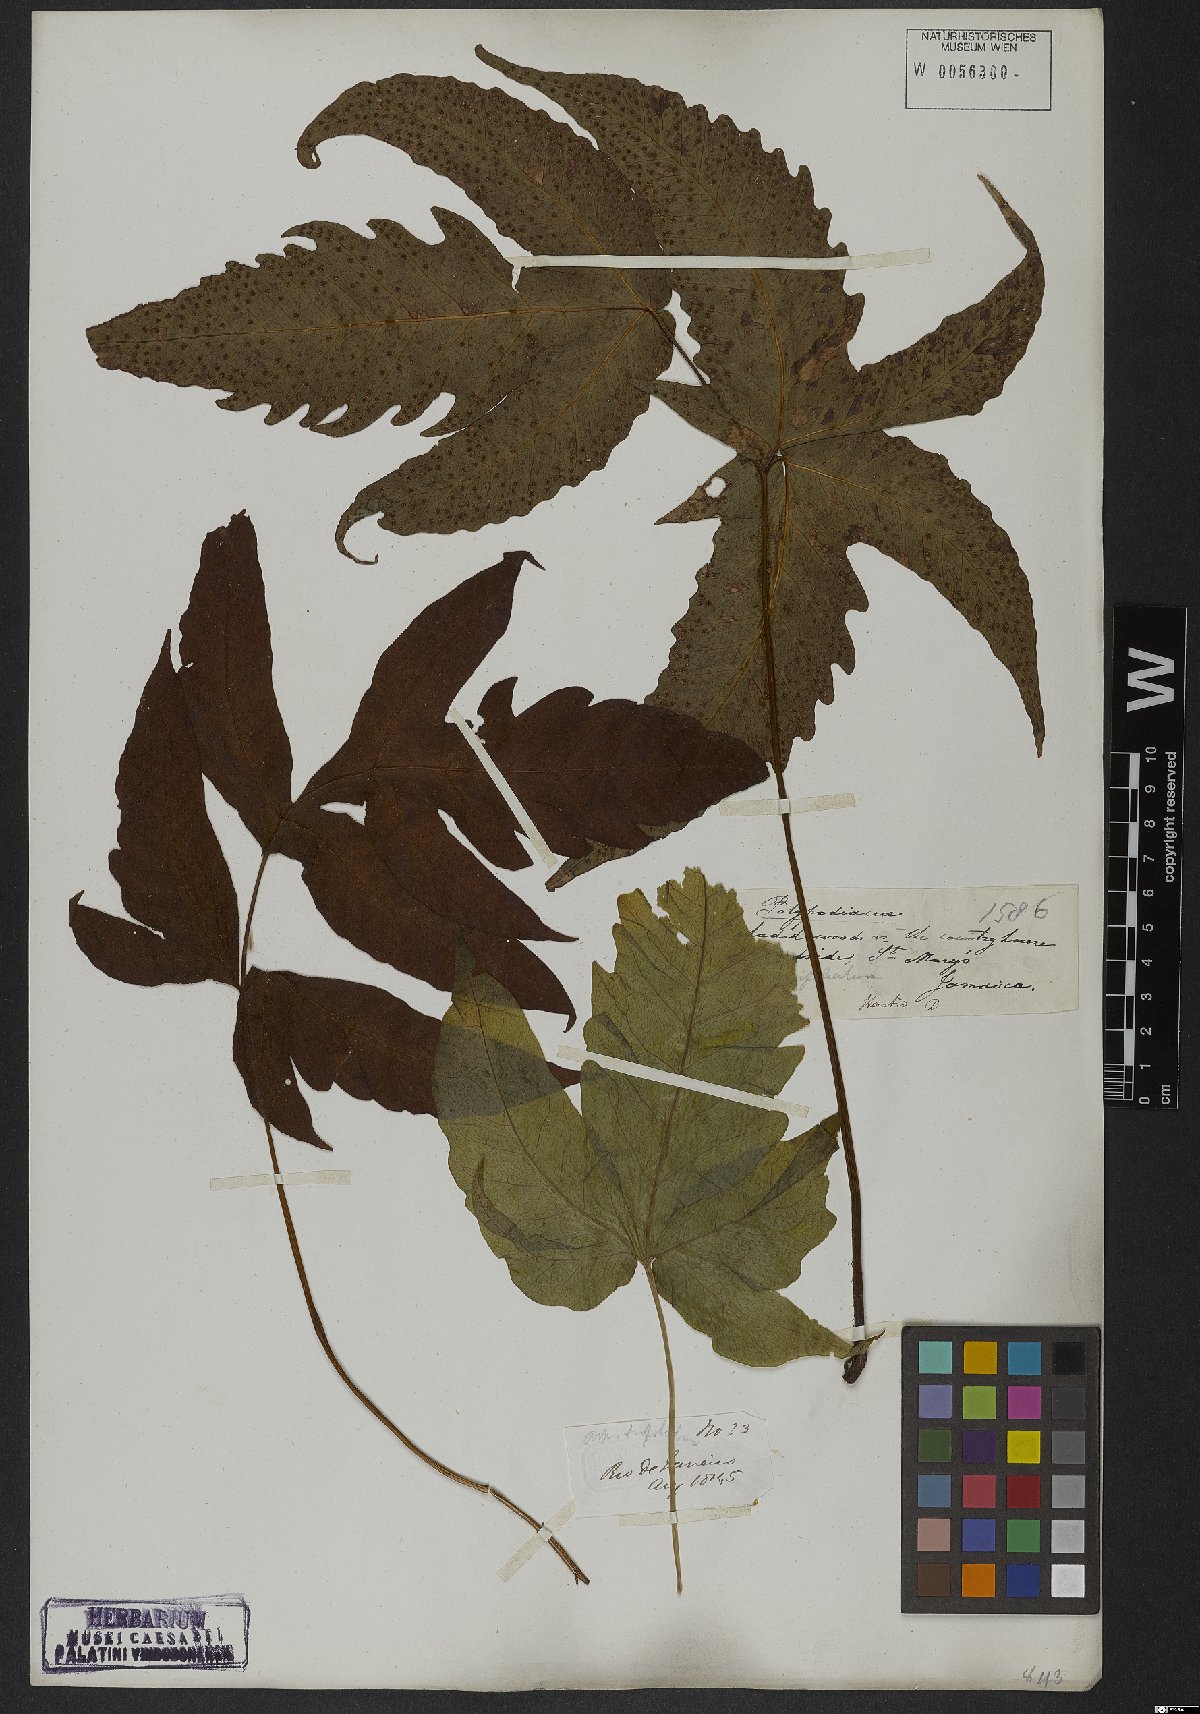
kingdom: Plantae
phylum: Tracheophyta
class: Polypodiopsida
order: Polypodiales
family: Tectariaceae
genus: Tectaria
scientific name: Tectaria trifoliata
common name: Threeleaf halberd fern
